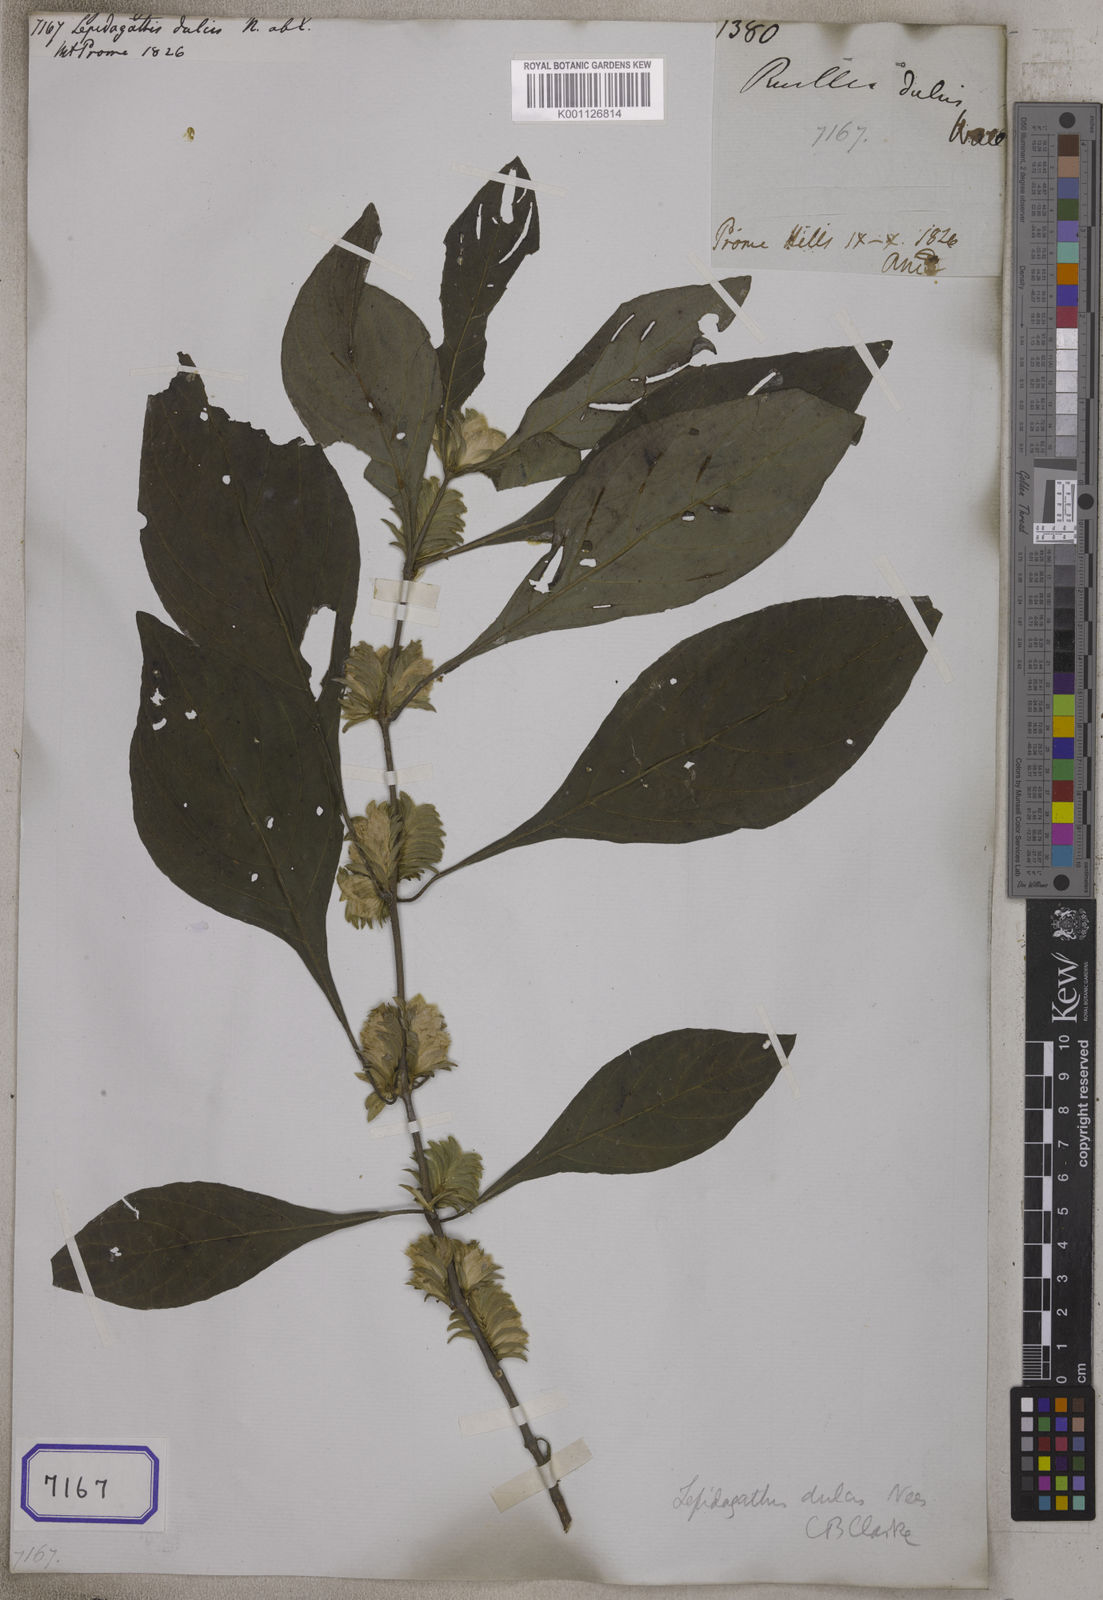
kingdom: Plantae
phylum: Tracheophyta
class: Magnoliopsida
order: Lamiales
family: Acanthaceae
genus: Lepidagathis
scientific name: Lepidagathis dulcis
